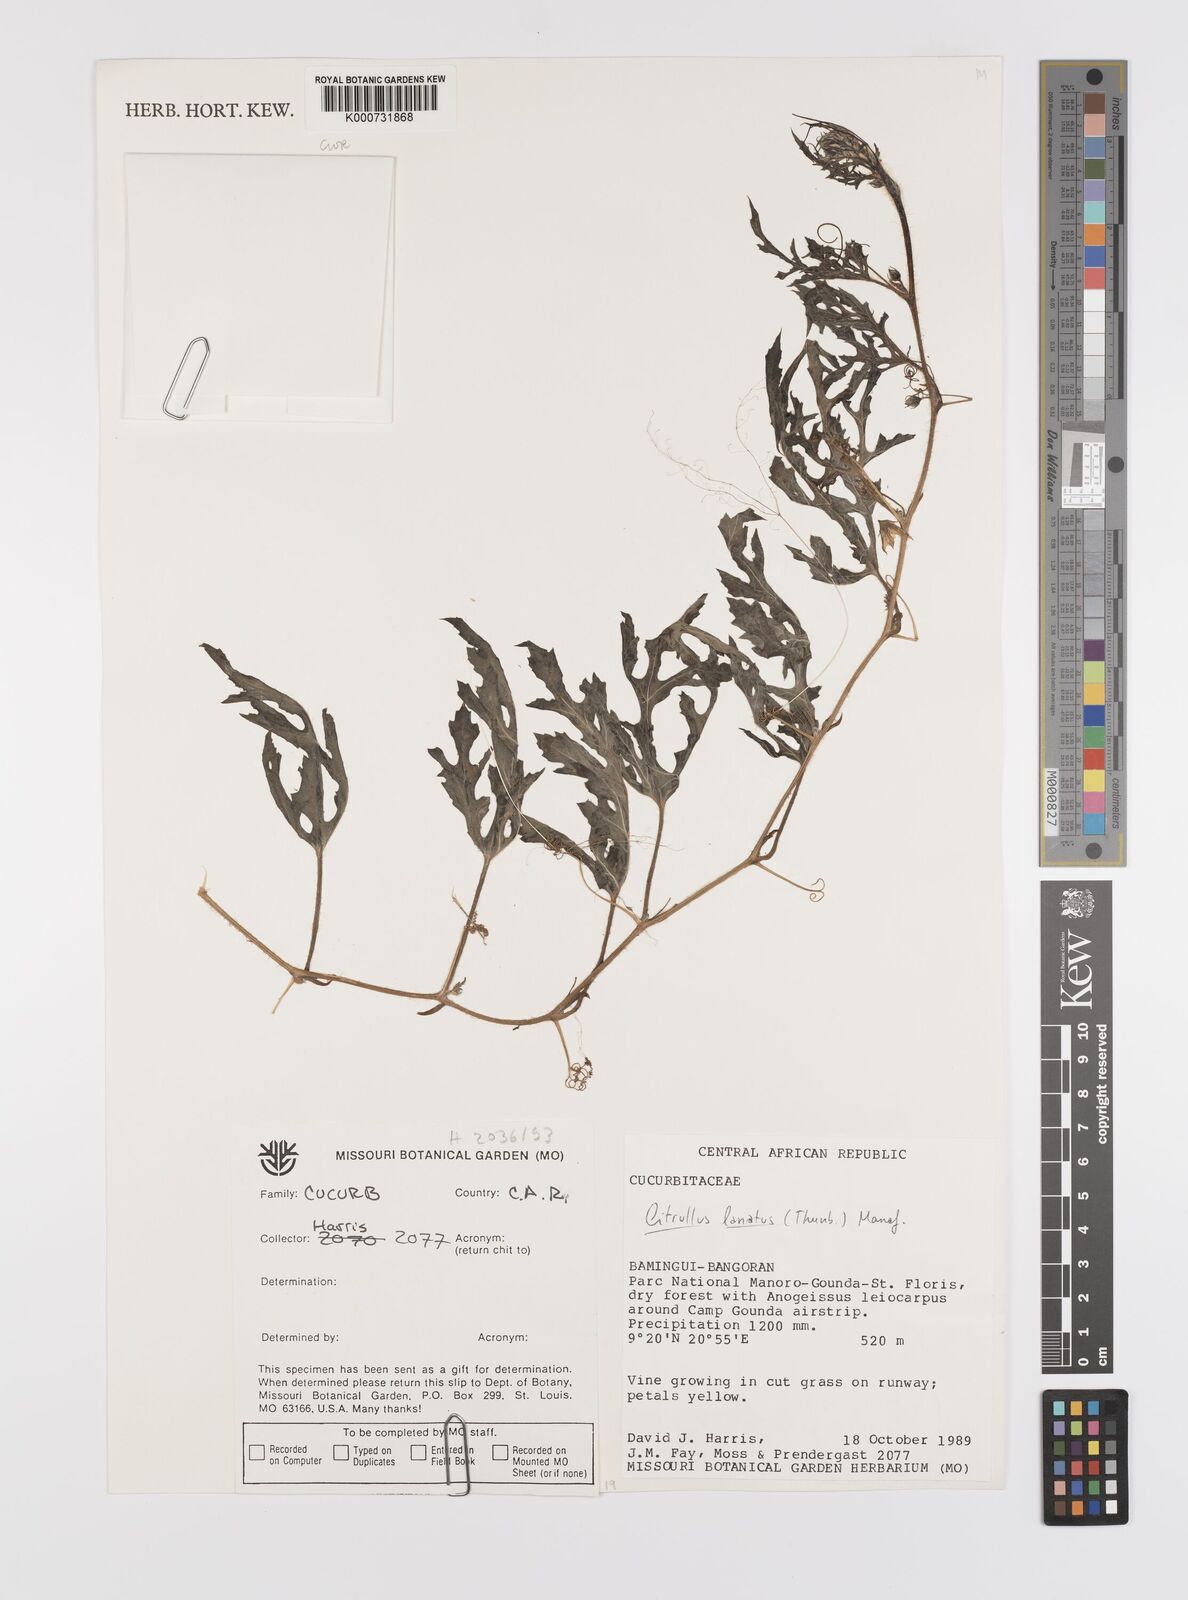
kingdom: Plantae
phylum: Tracheophyta
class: Magnoliopsida
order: Cucurbitales
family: Cucurbitaceae
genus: Citrullus
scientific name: Citrullus lanatus
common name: Watermelon
